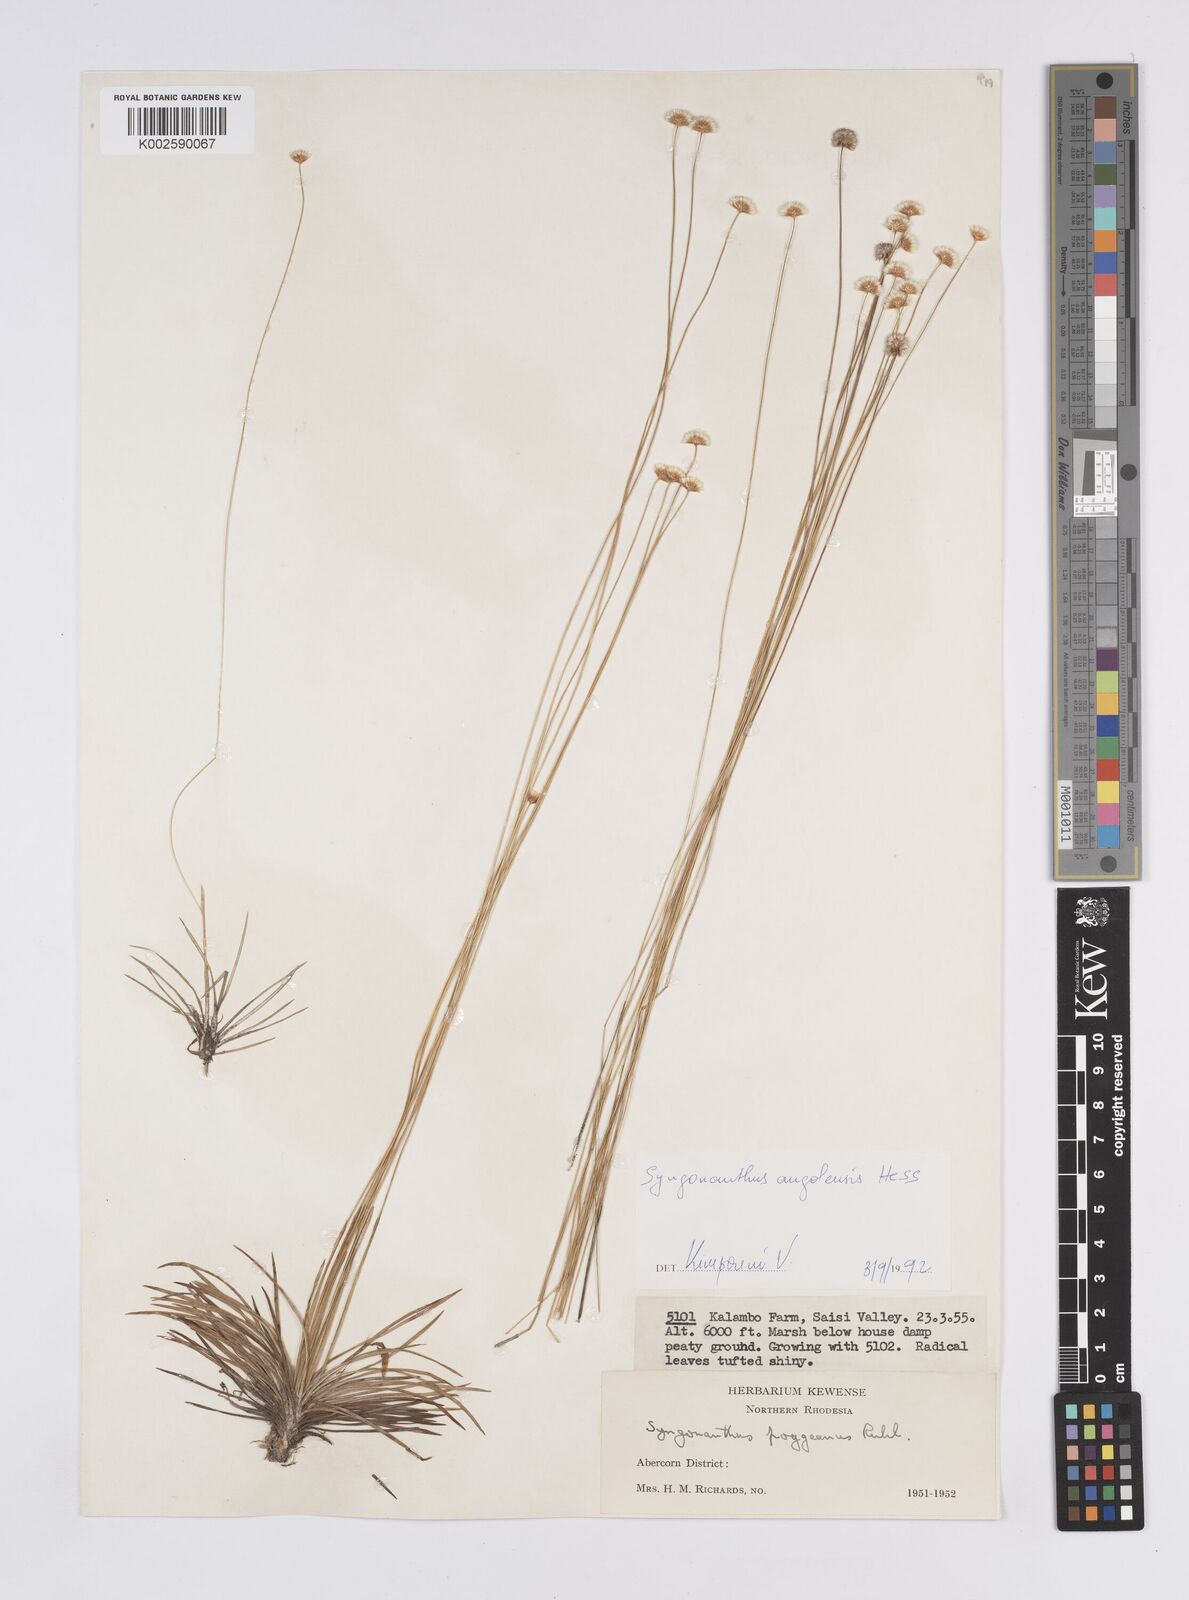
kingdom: Plantae
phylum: Tracheophyta
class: Liliopsida
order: Poales
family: Eriocaulaceae
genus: Syngonanthus
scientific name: Syngonanthus angolensis
